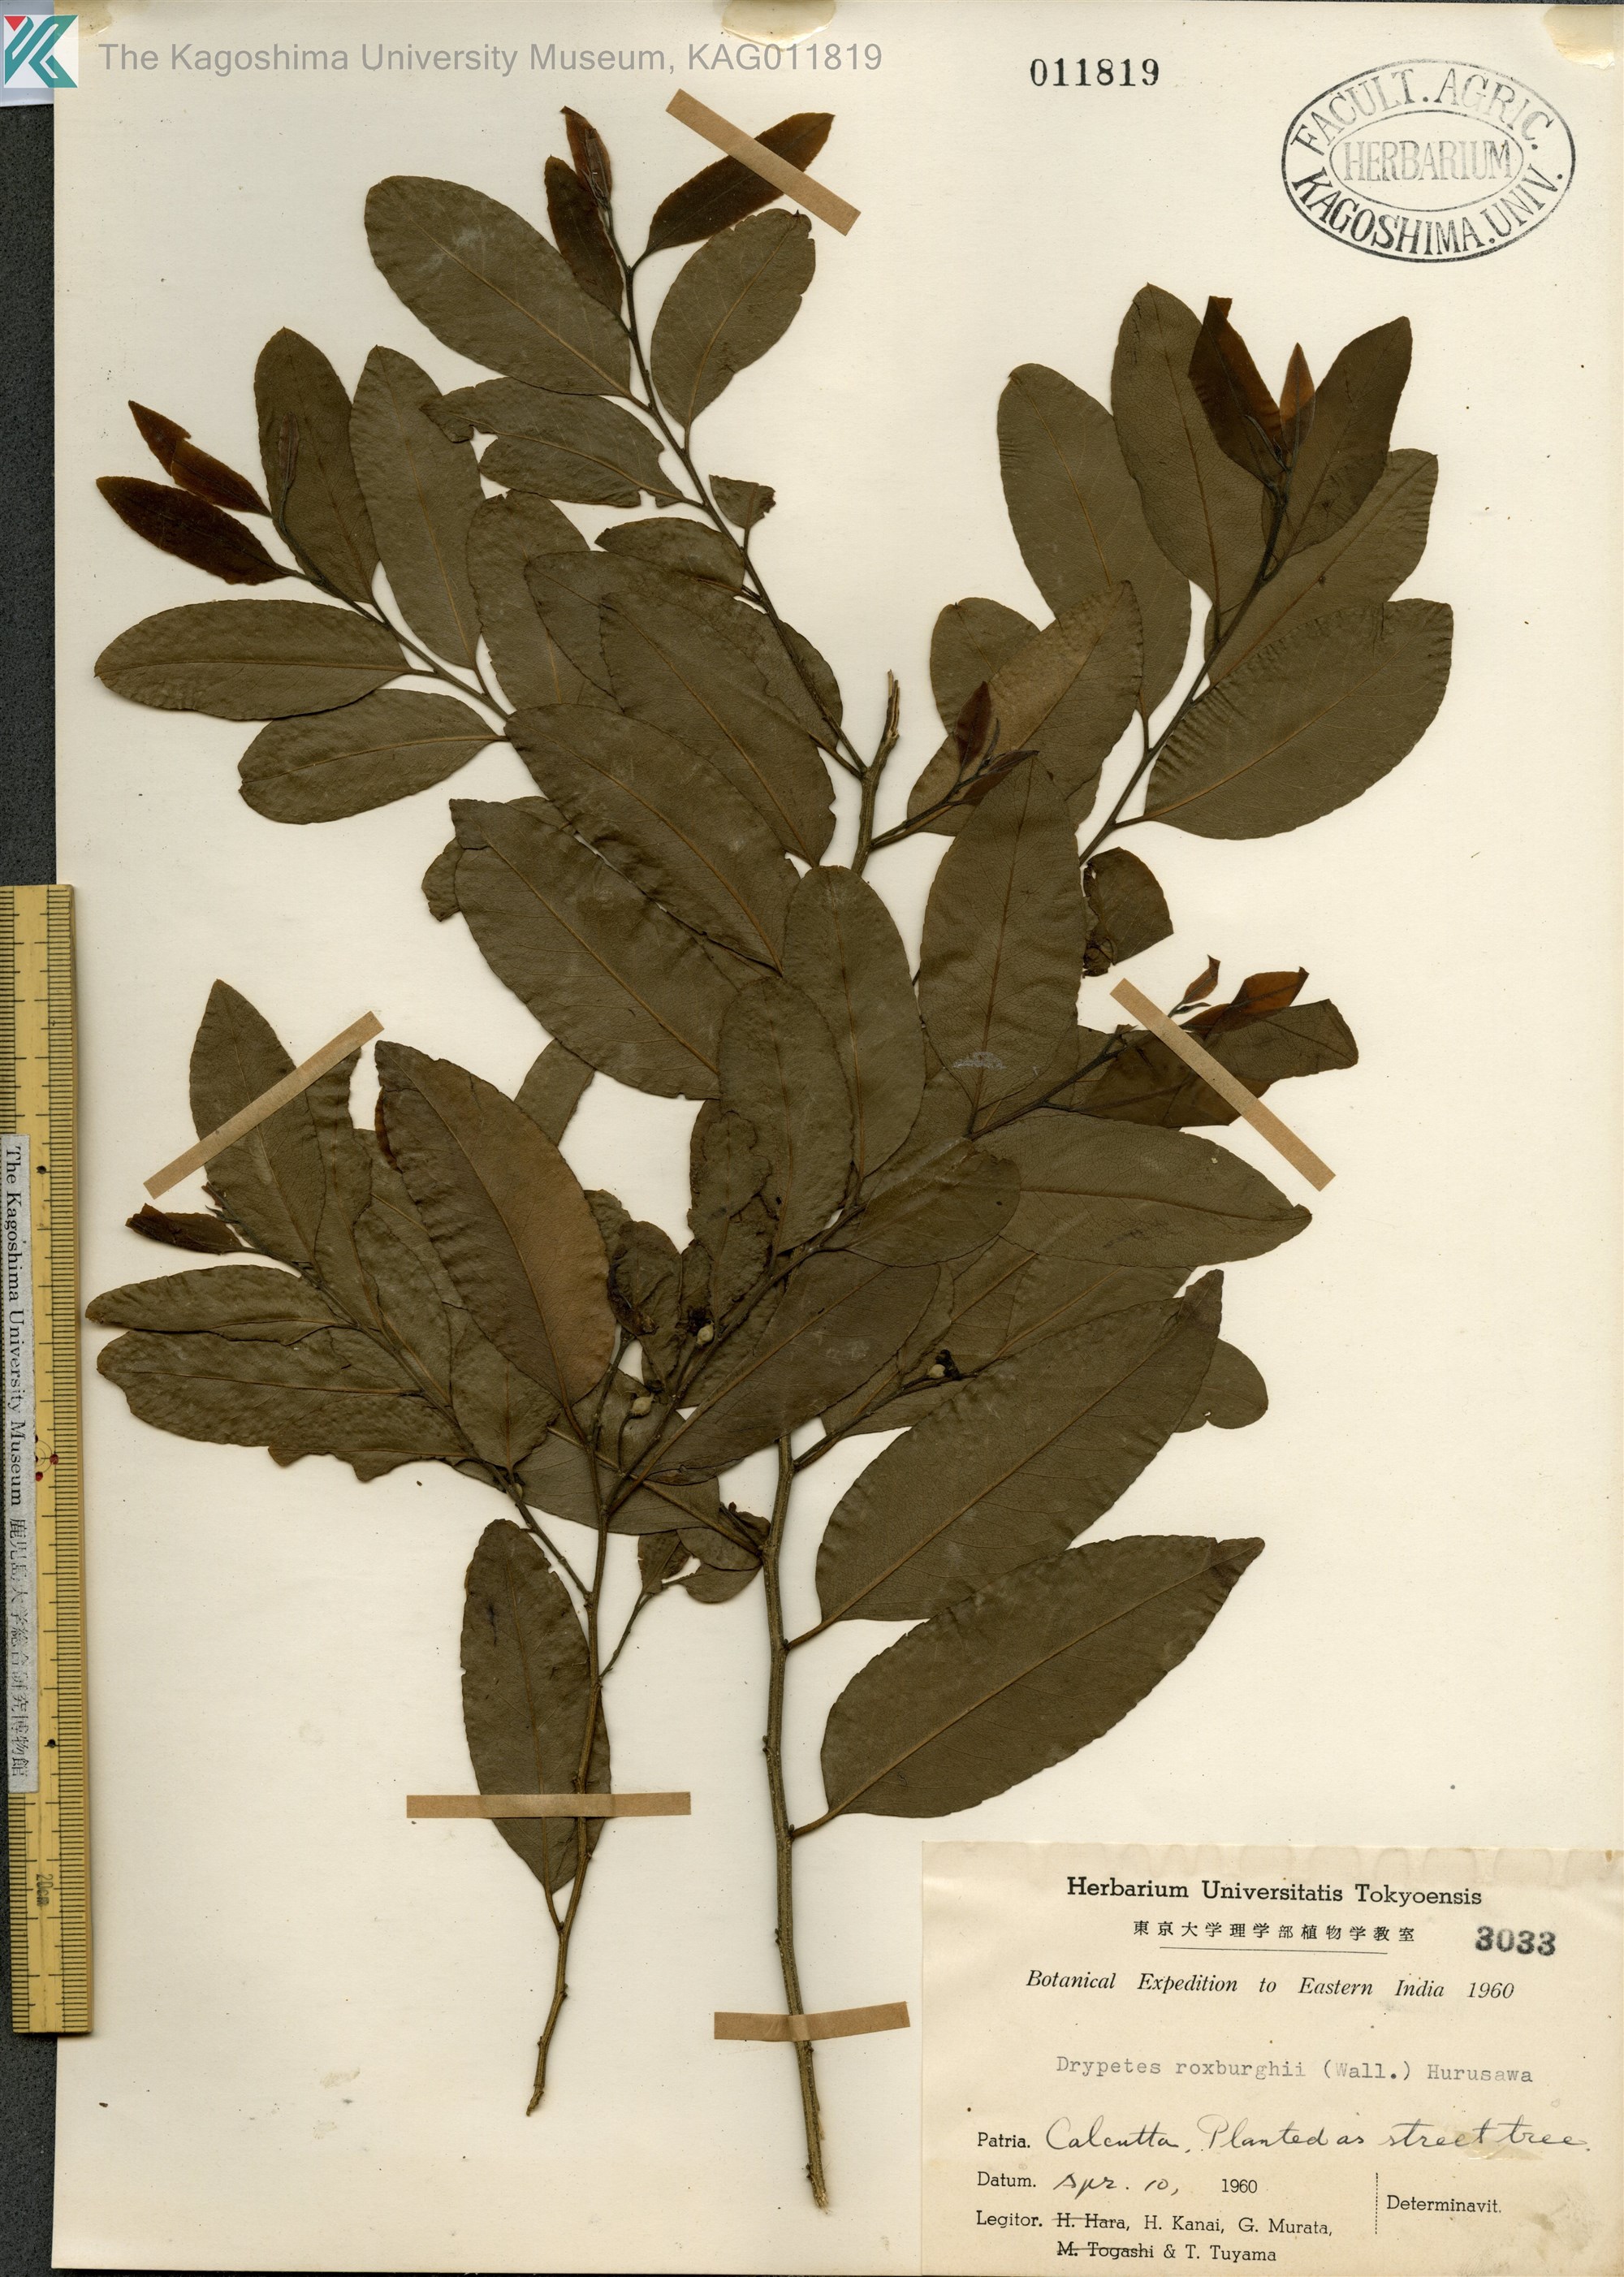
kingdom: Plantae
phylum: Tracheophyta
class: Magnoliopsida
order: Malpighiales
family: Putranjivaceae
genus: Putranjiva
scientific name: Putranjiva roxburghii
